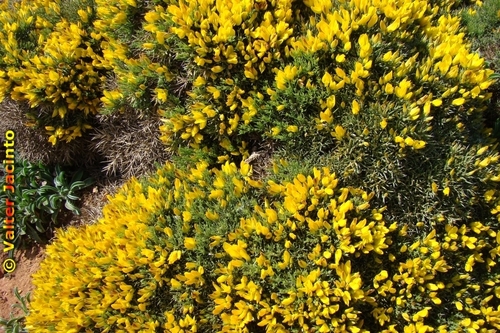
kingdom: Plantae
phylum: Tracheophyta
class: Magnoliopsida
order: Fabales
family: Fabaceae
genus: Ulex
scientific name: Ulex erinaceus
